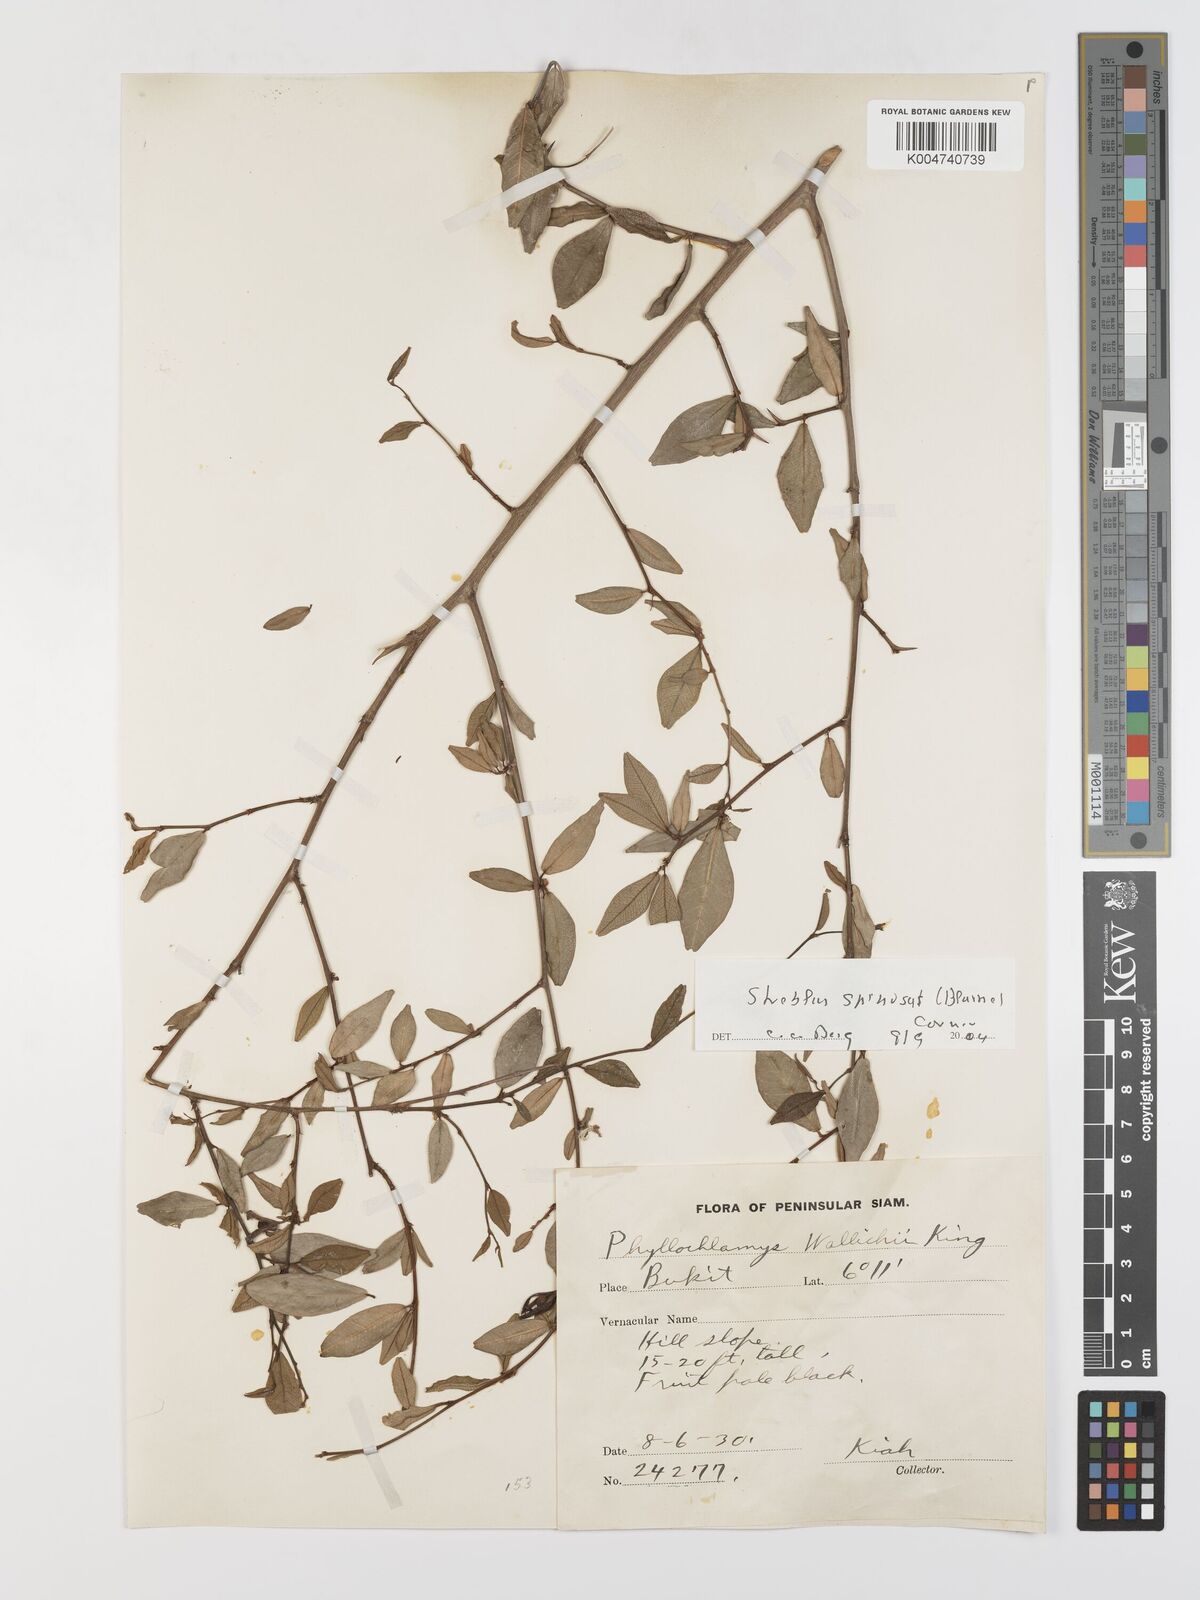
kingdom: Plantae
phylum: Tracheophyta
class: Magnoliopsida
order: Rosales
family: Moraceae
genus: Taxotrophis
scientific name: Taxotrophis spinosa
